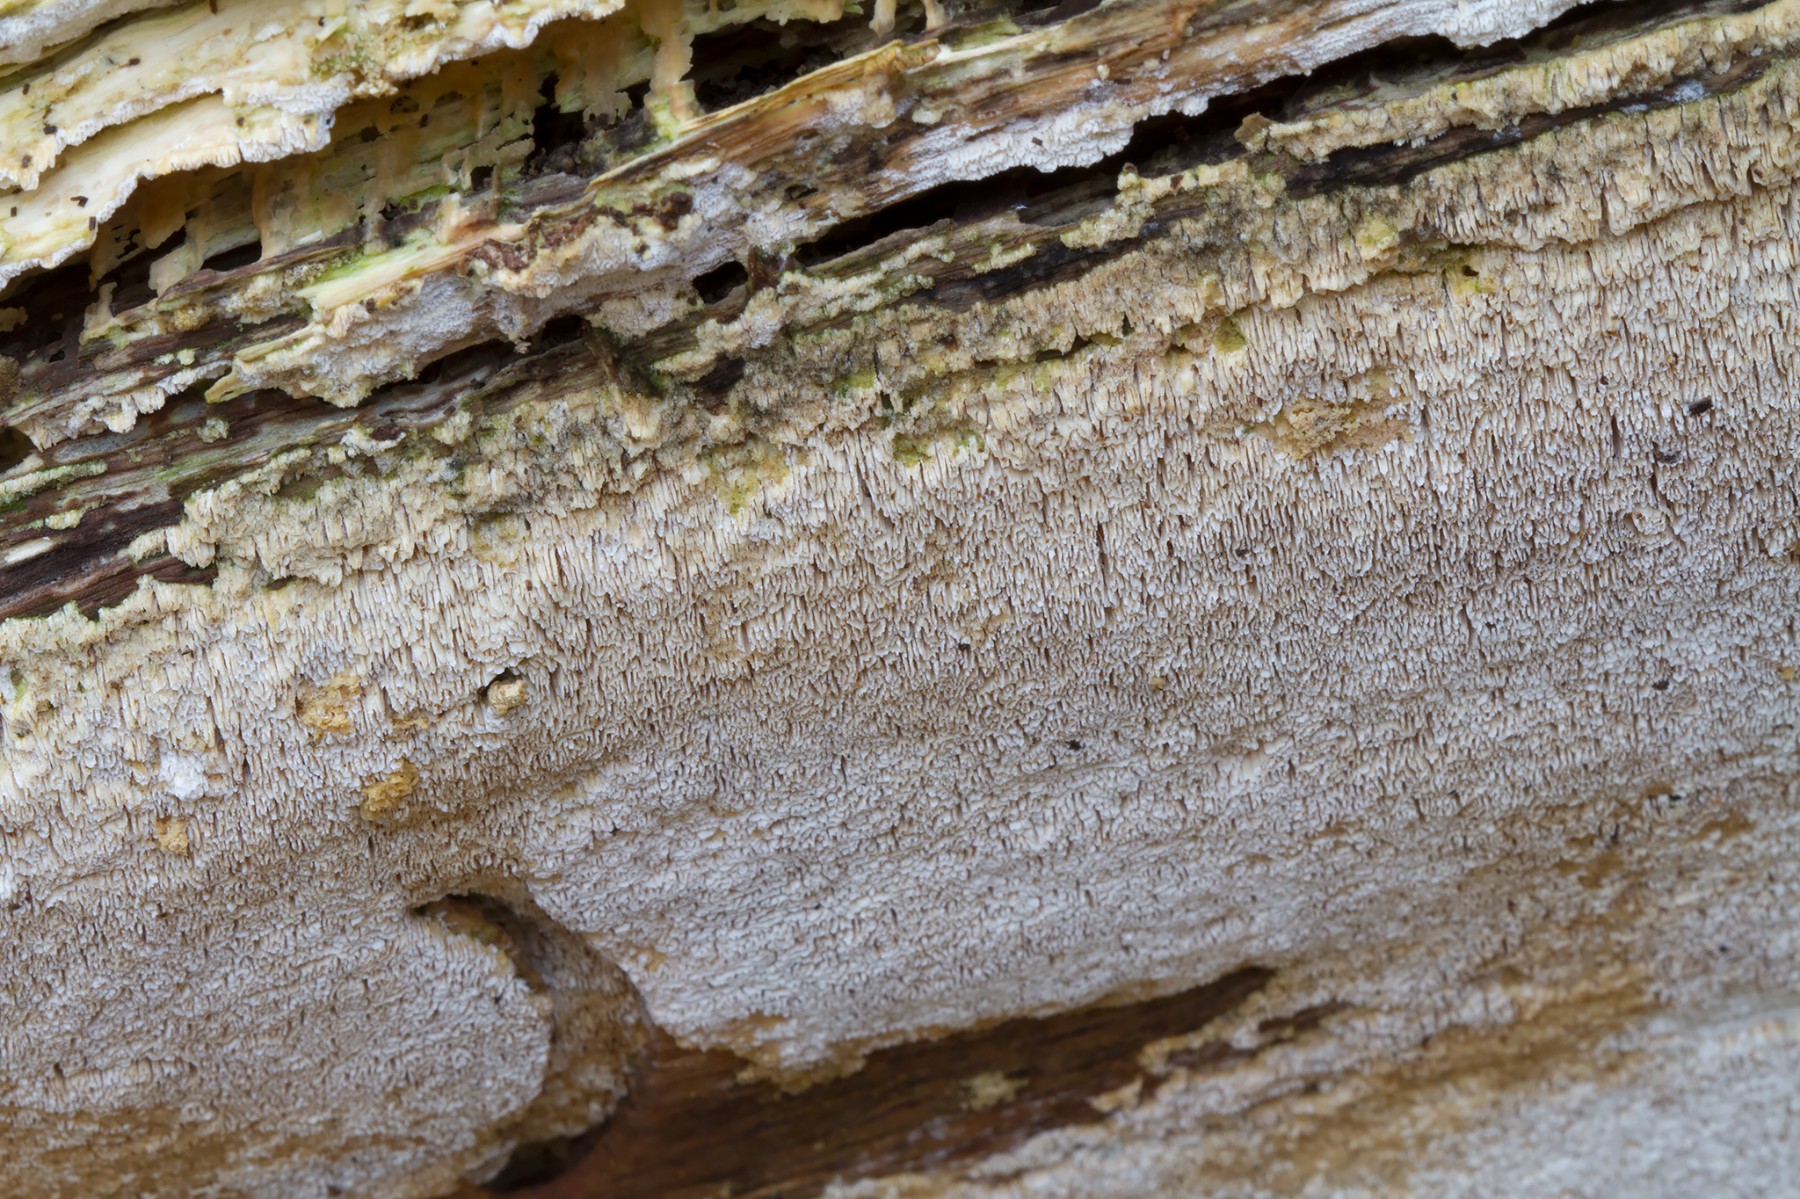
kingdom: Fungi
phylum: Basidiomycota
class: Agaricomycetes
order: Hymenochaetales
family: Schizoporaceae
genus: Xylodon
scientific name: Xylodon subtropicus
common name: labyrint-tandsvamp
